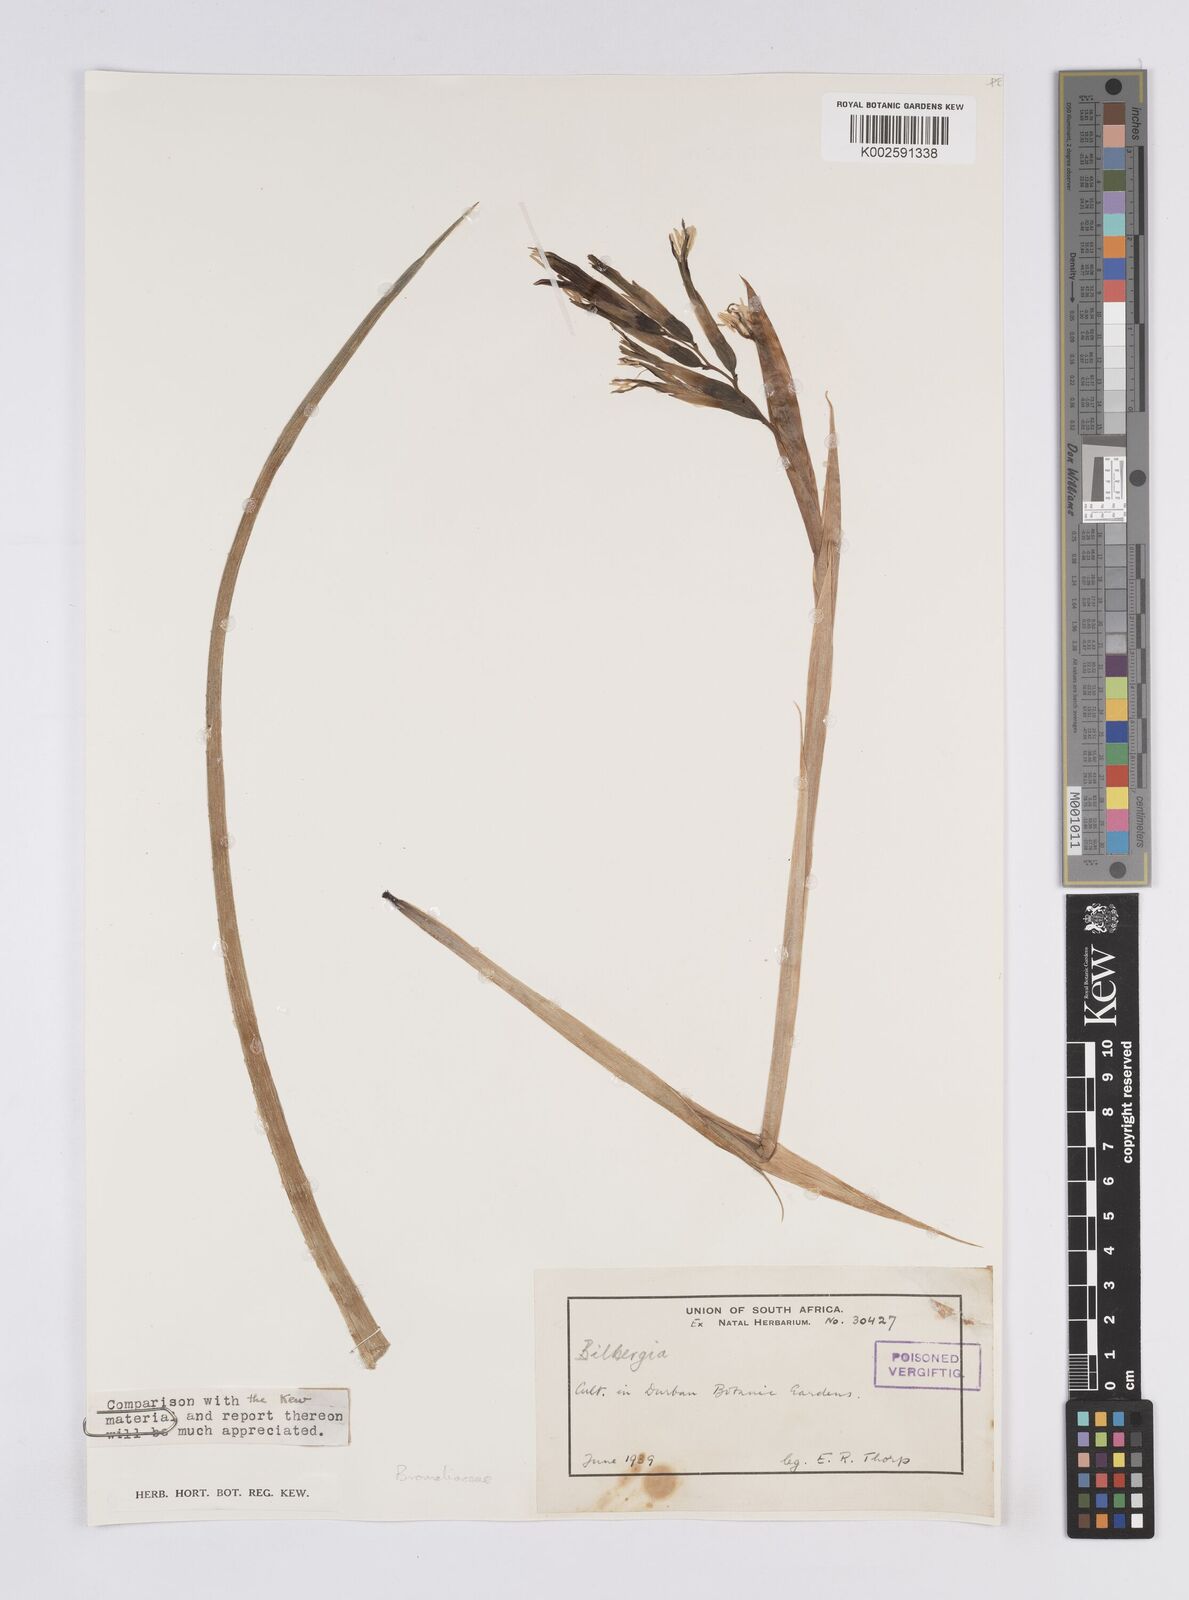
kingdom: Plantae
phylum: Tracheophyta
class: Liliopsida
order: Poales
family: Bromeliaceae
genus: Billbergia
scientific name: Billbergia
